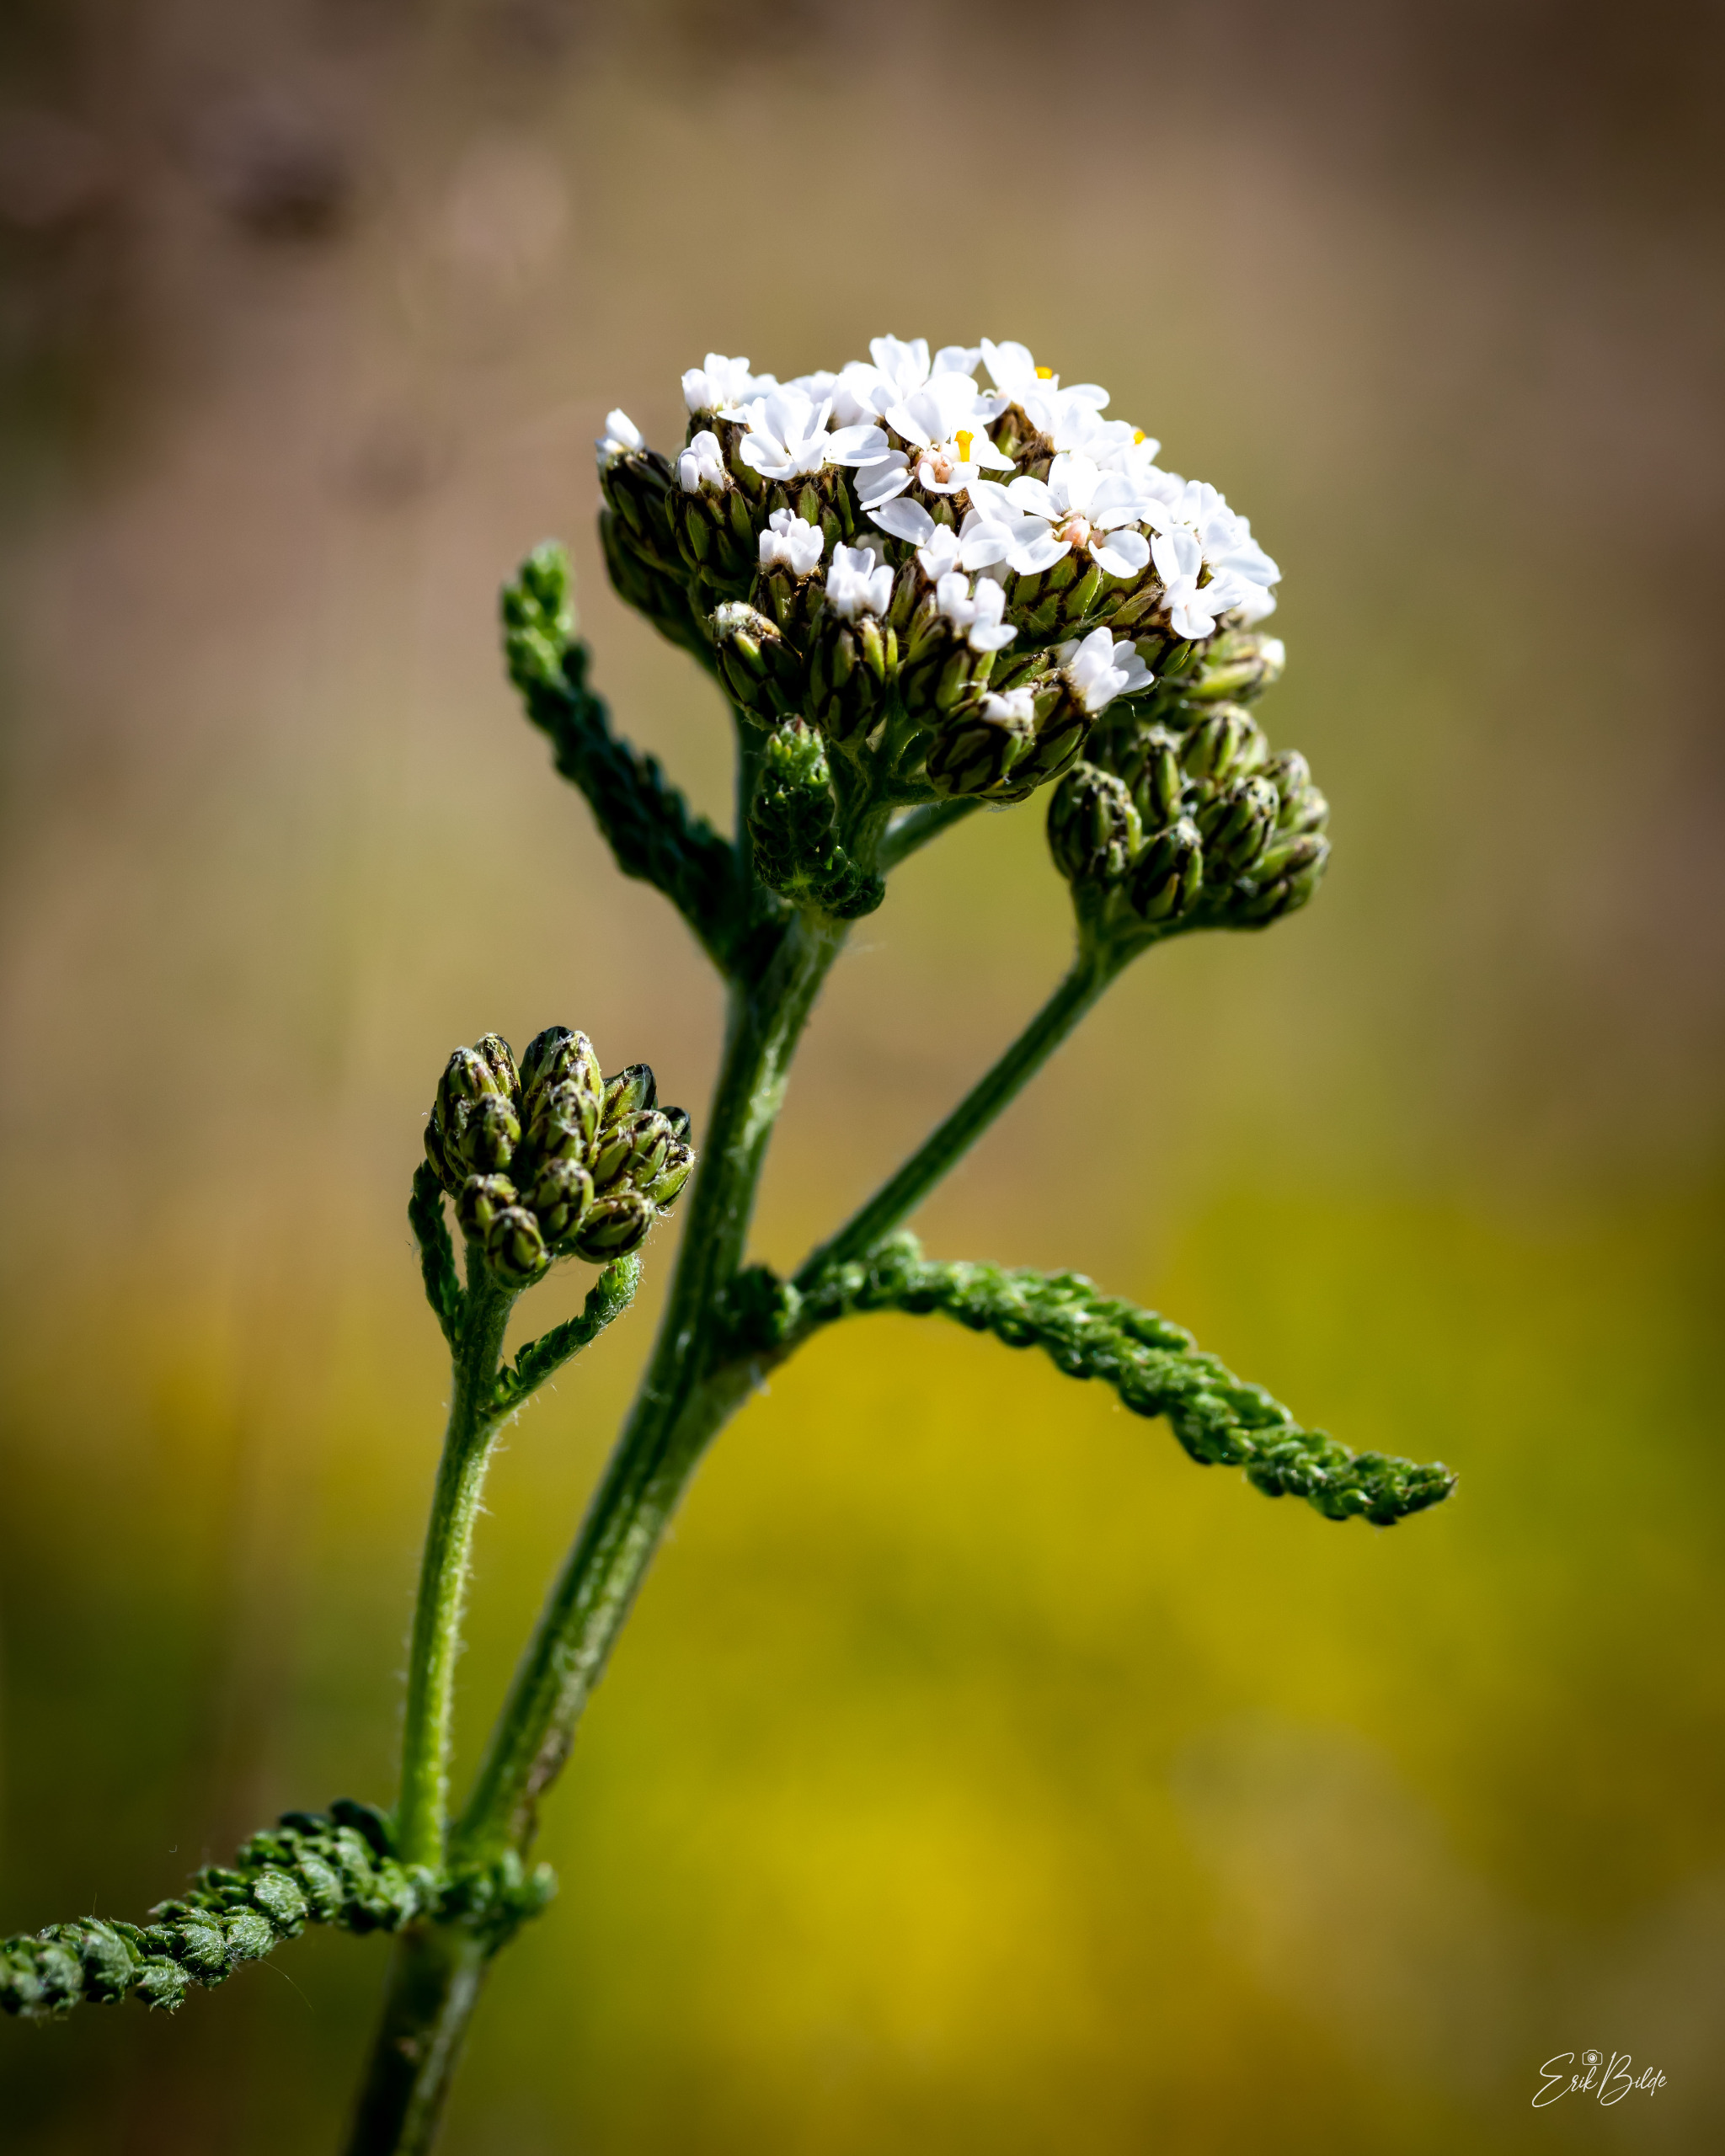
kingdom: Plantae
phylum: Tracheophyta
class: Magnoliopsida
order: Asterales
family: Asteraceae
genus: Achillea
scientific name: Achillea millefolium
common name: Almindelig røllike
